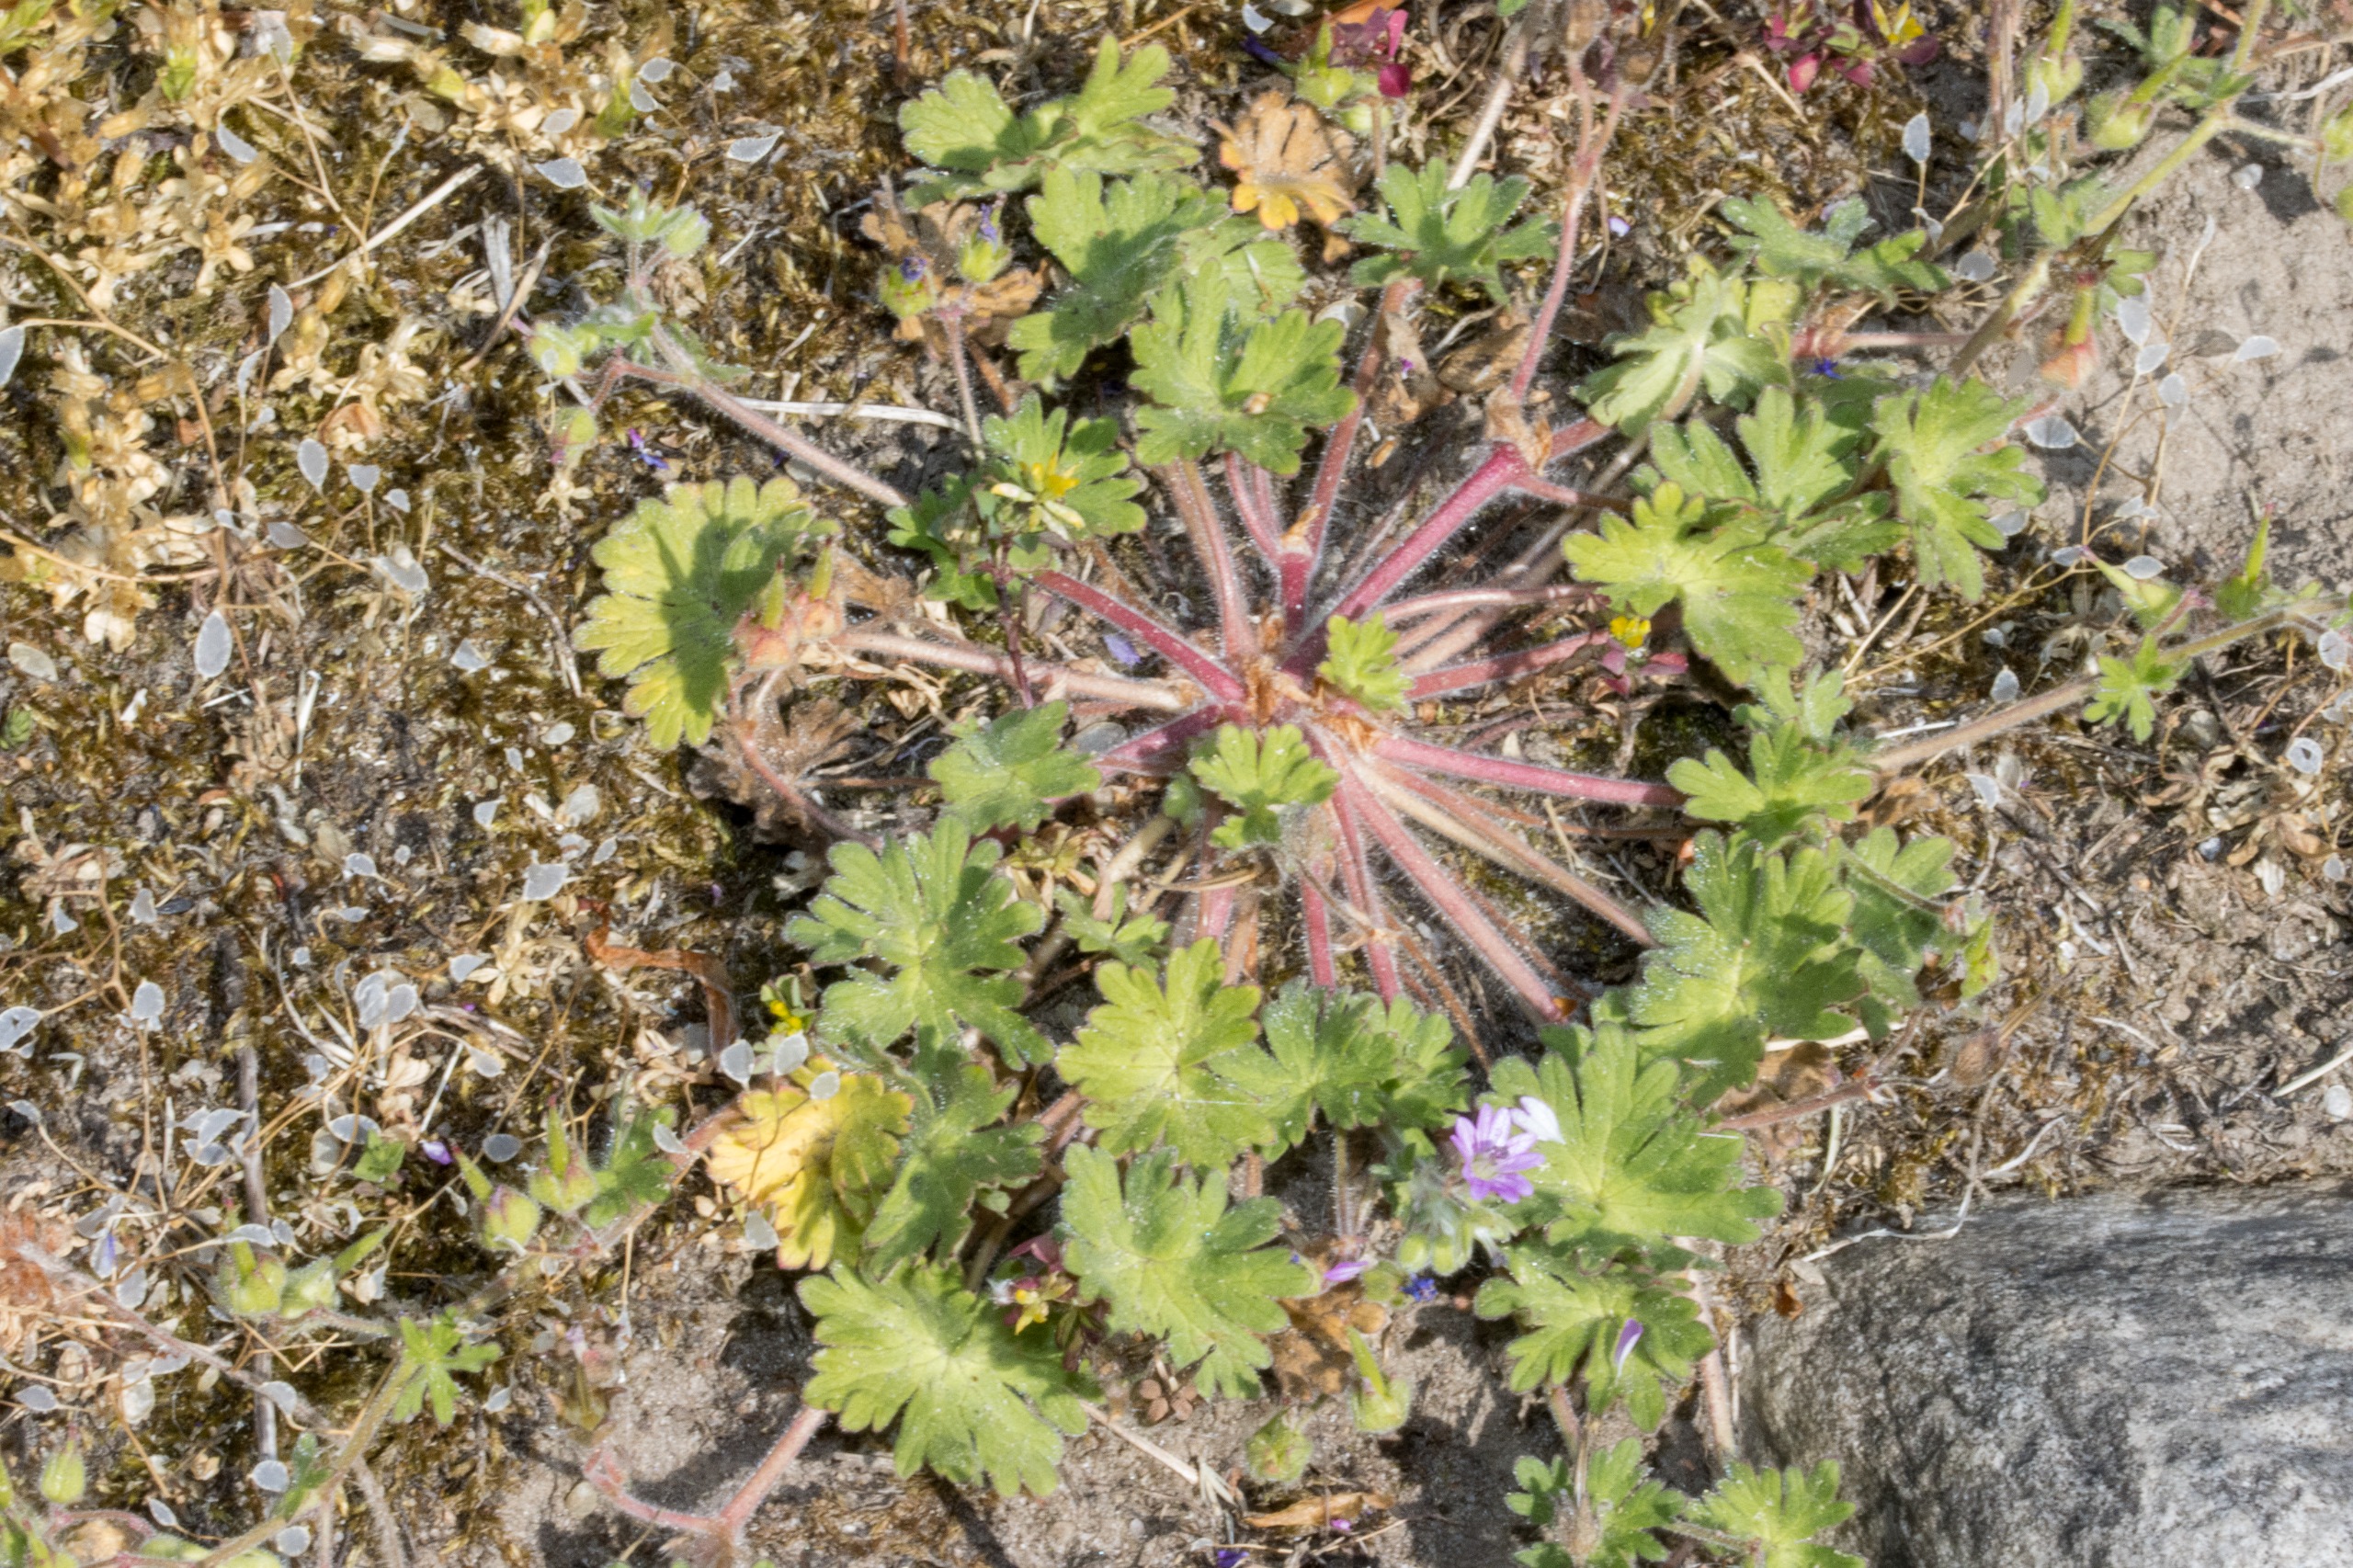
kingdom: Plantae
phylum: Tracheophyta
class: Magnoliopsida
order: Geraniales
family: Geraniaceae
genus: Geranium
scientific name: Geranium molle
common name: Blød storkenæb
